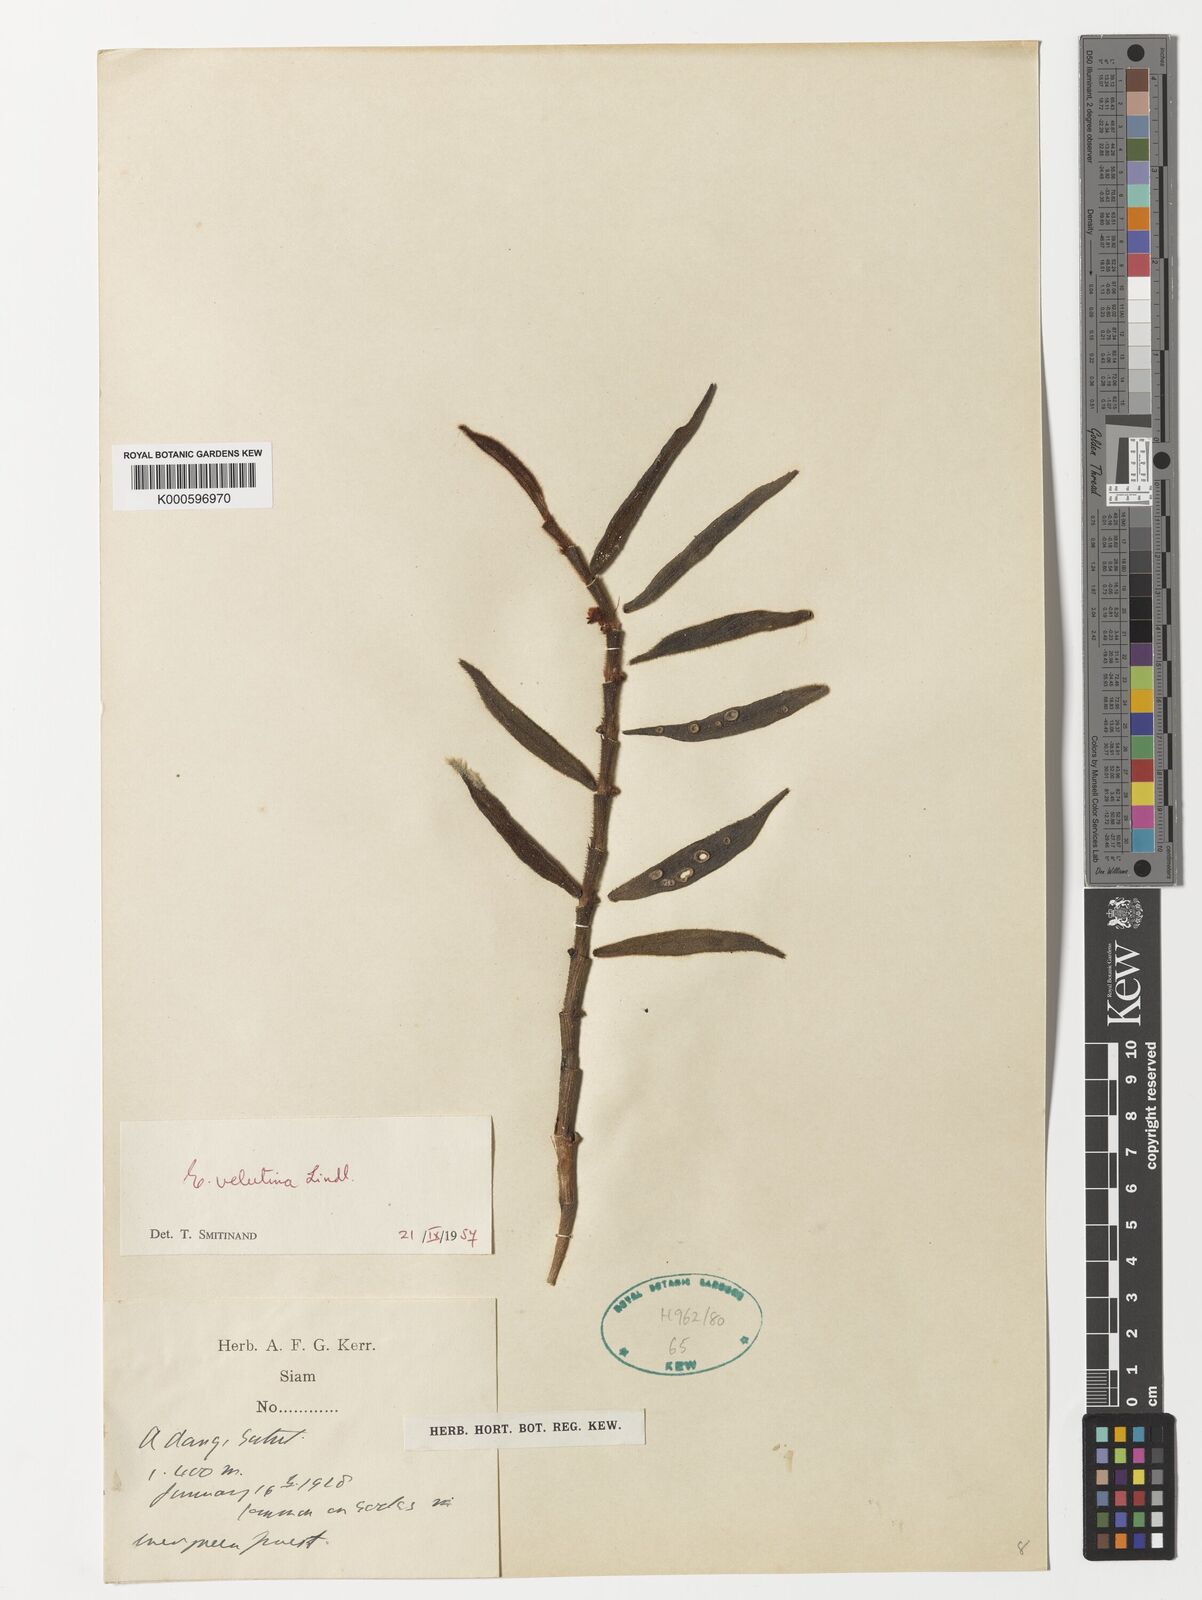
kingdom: Plantae
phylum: Tracheophyta
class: Liliopsida
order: Asparagales
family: Orchidaceae
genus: Trichotosia
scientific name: Trichotosia velutina
